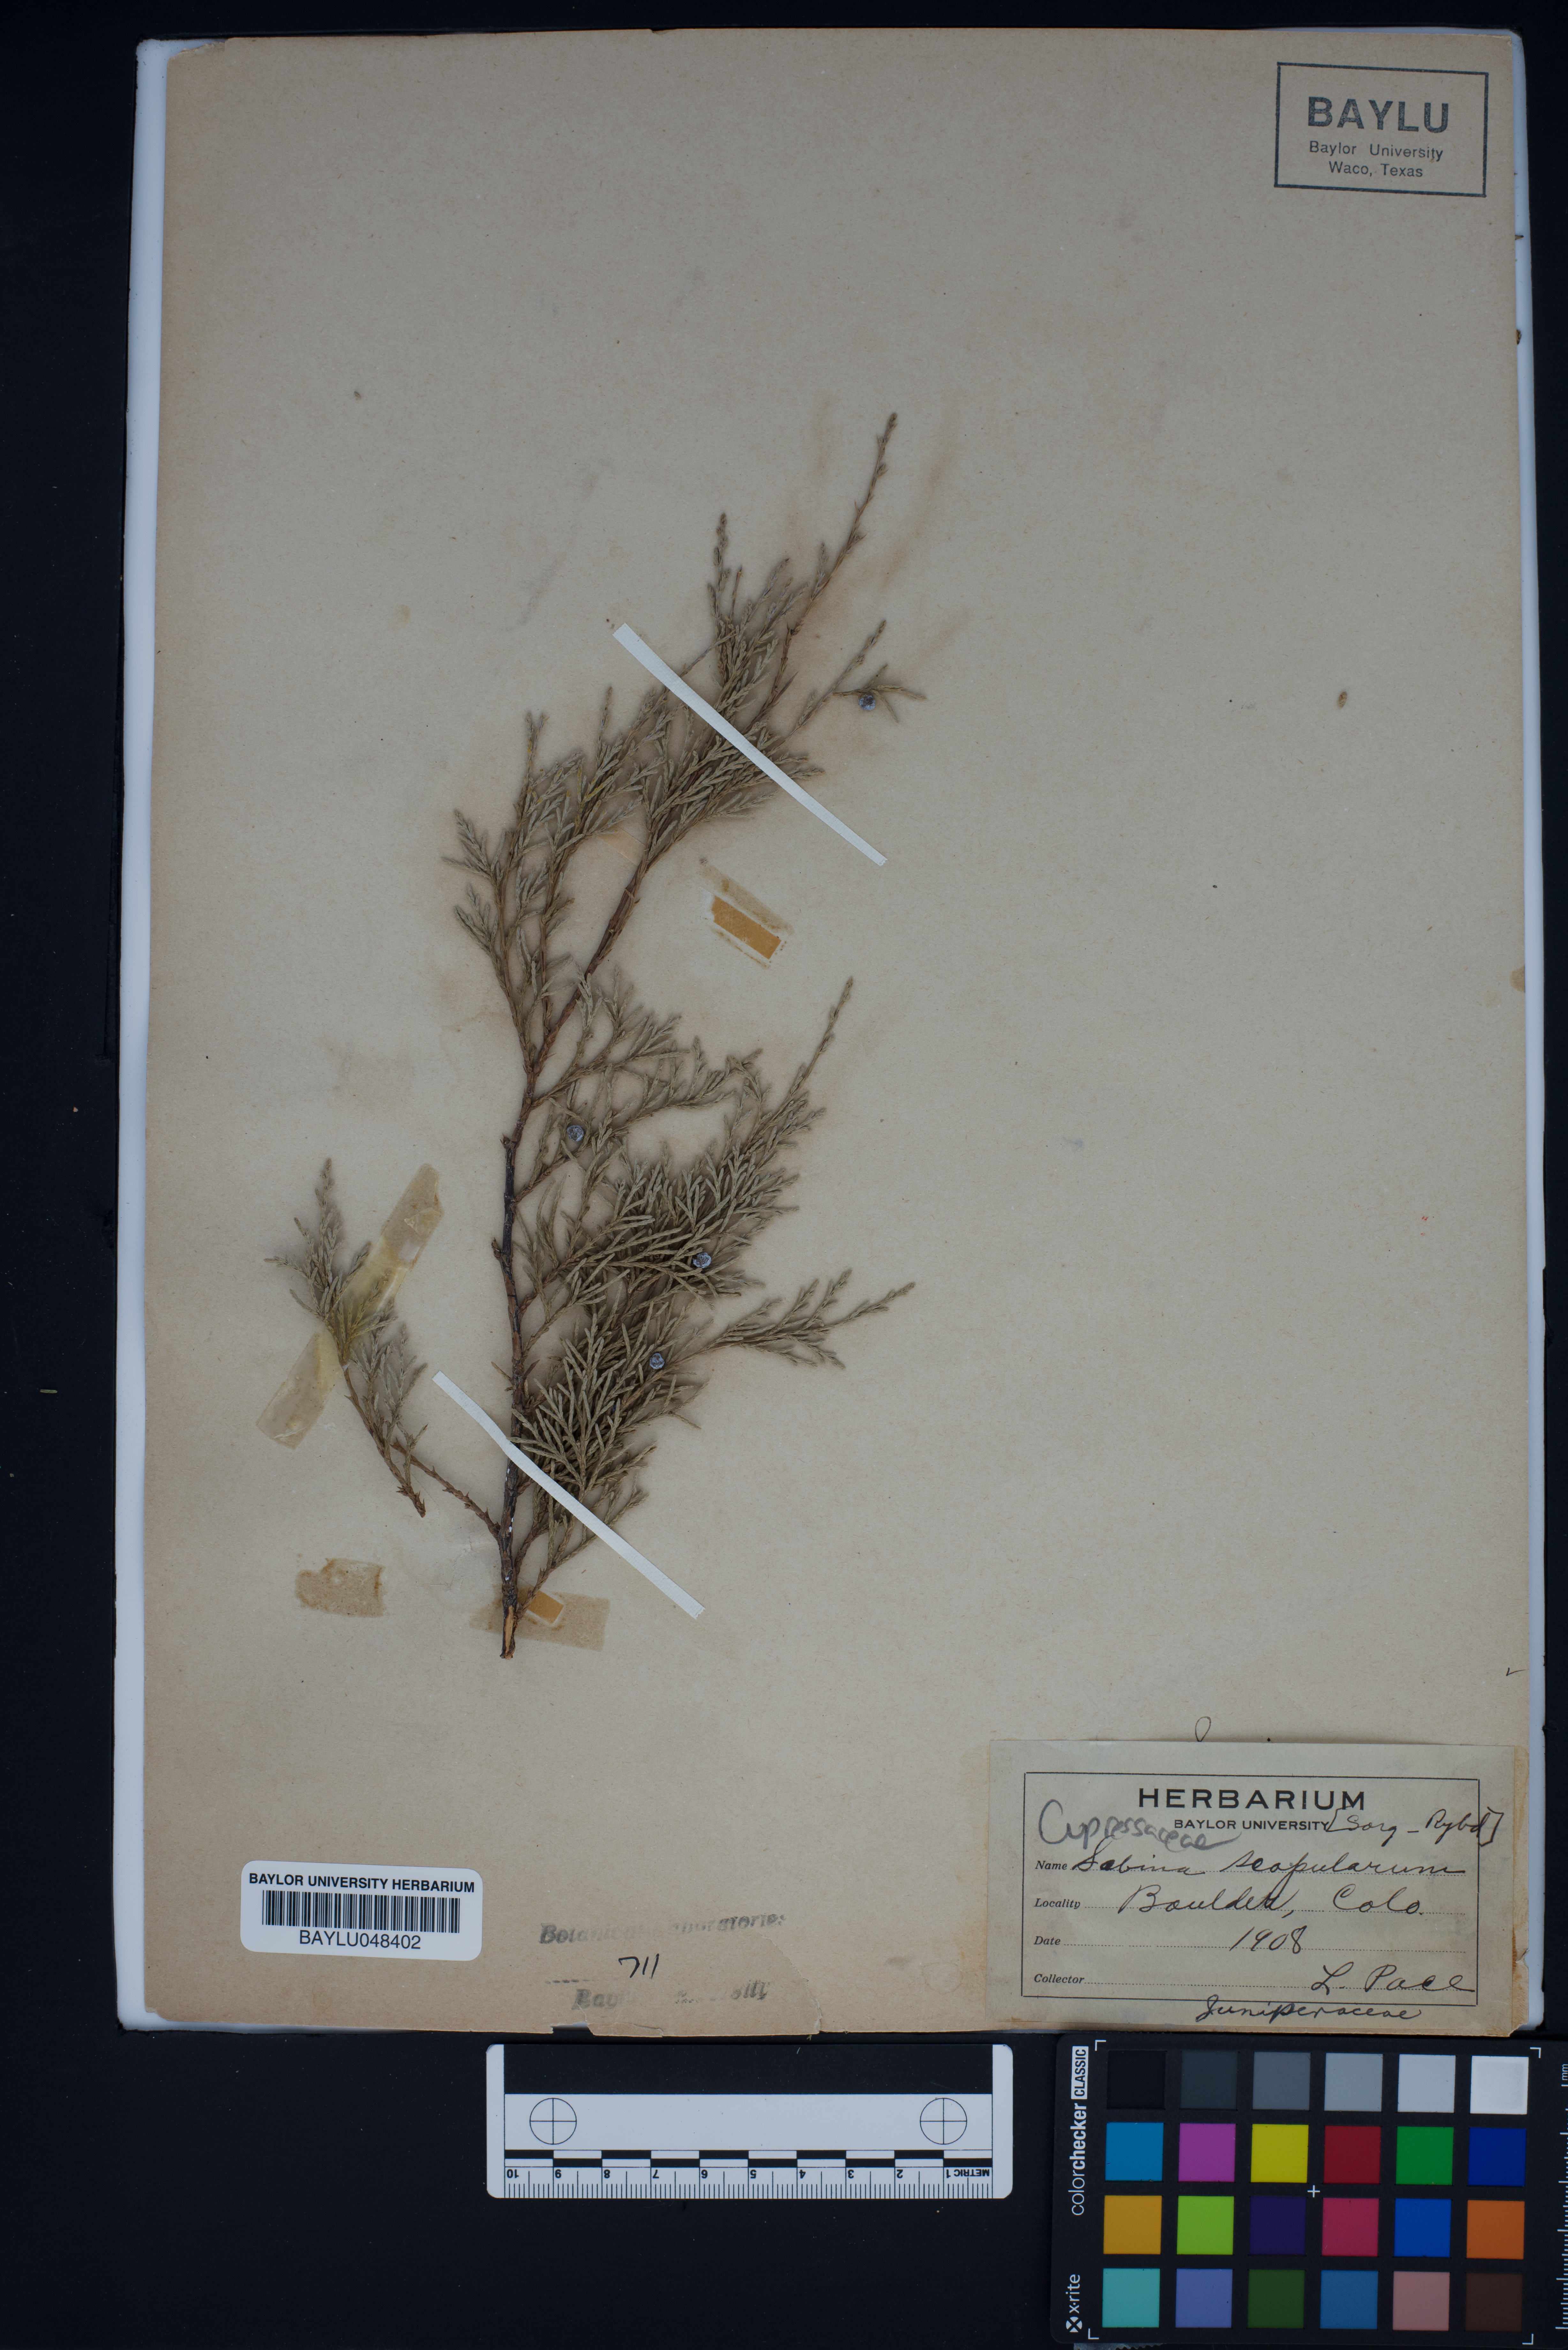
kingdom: Plantae
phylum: Tracheophyta
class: Pinopsida
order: Pinales
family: Cupressaceae
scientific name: Cupressaceae
